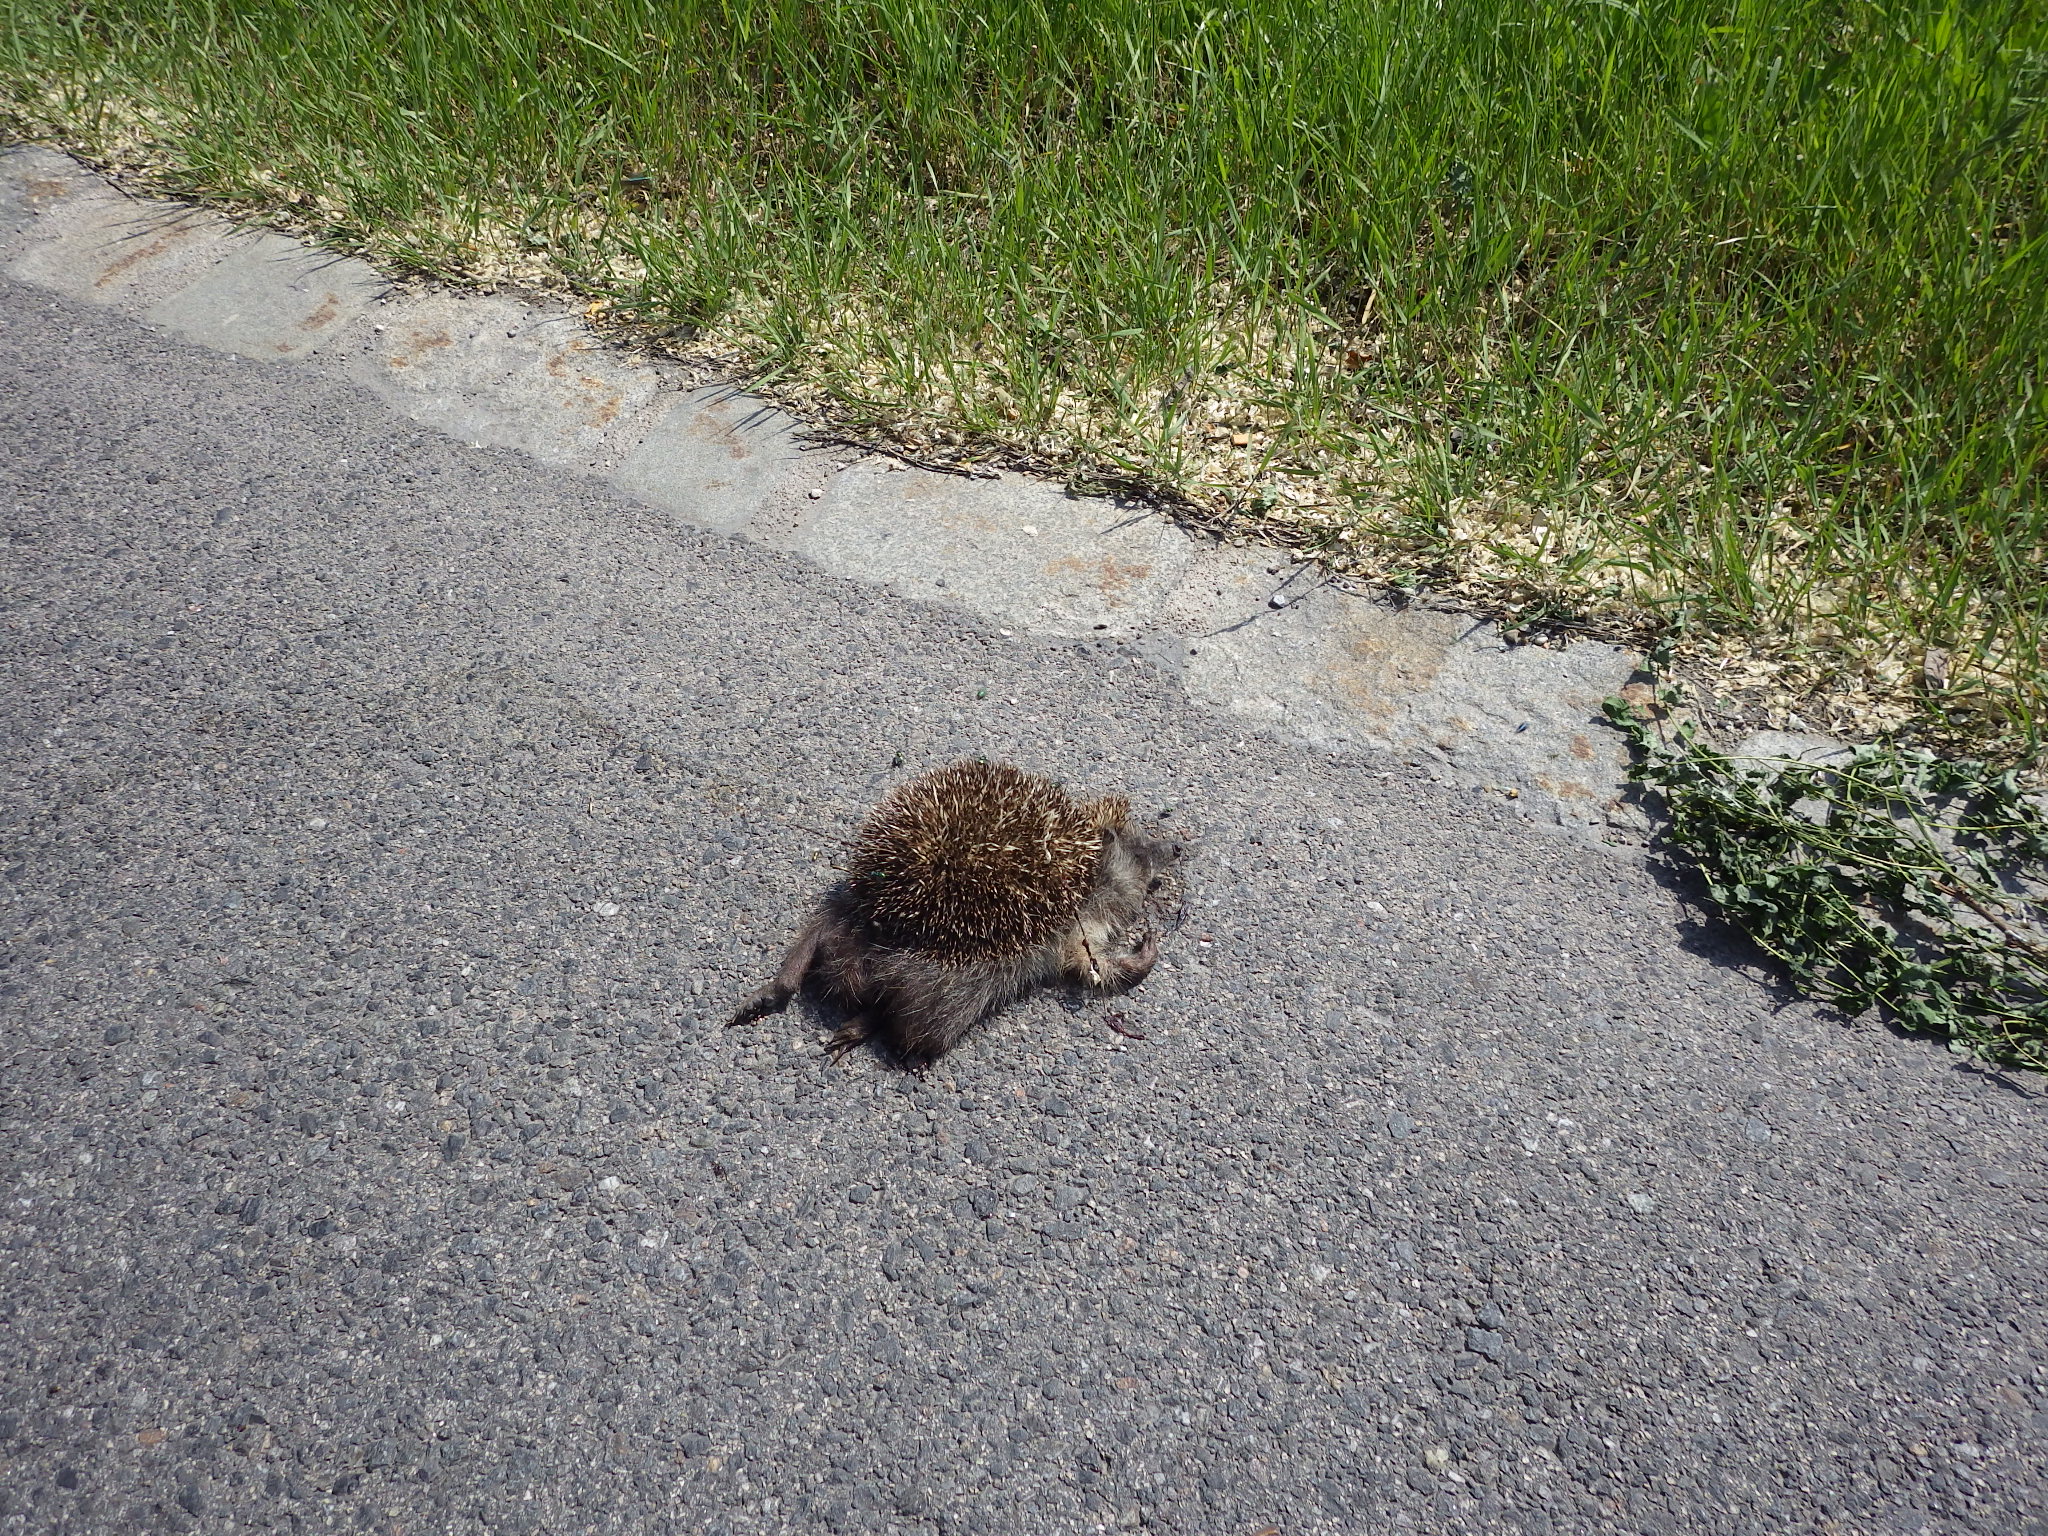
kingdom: Animalia
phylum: Chordata
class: Mammalia
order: Erinaceomorpha
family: Erinaceidae
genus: Erinaceus
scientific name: Erinaceus
